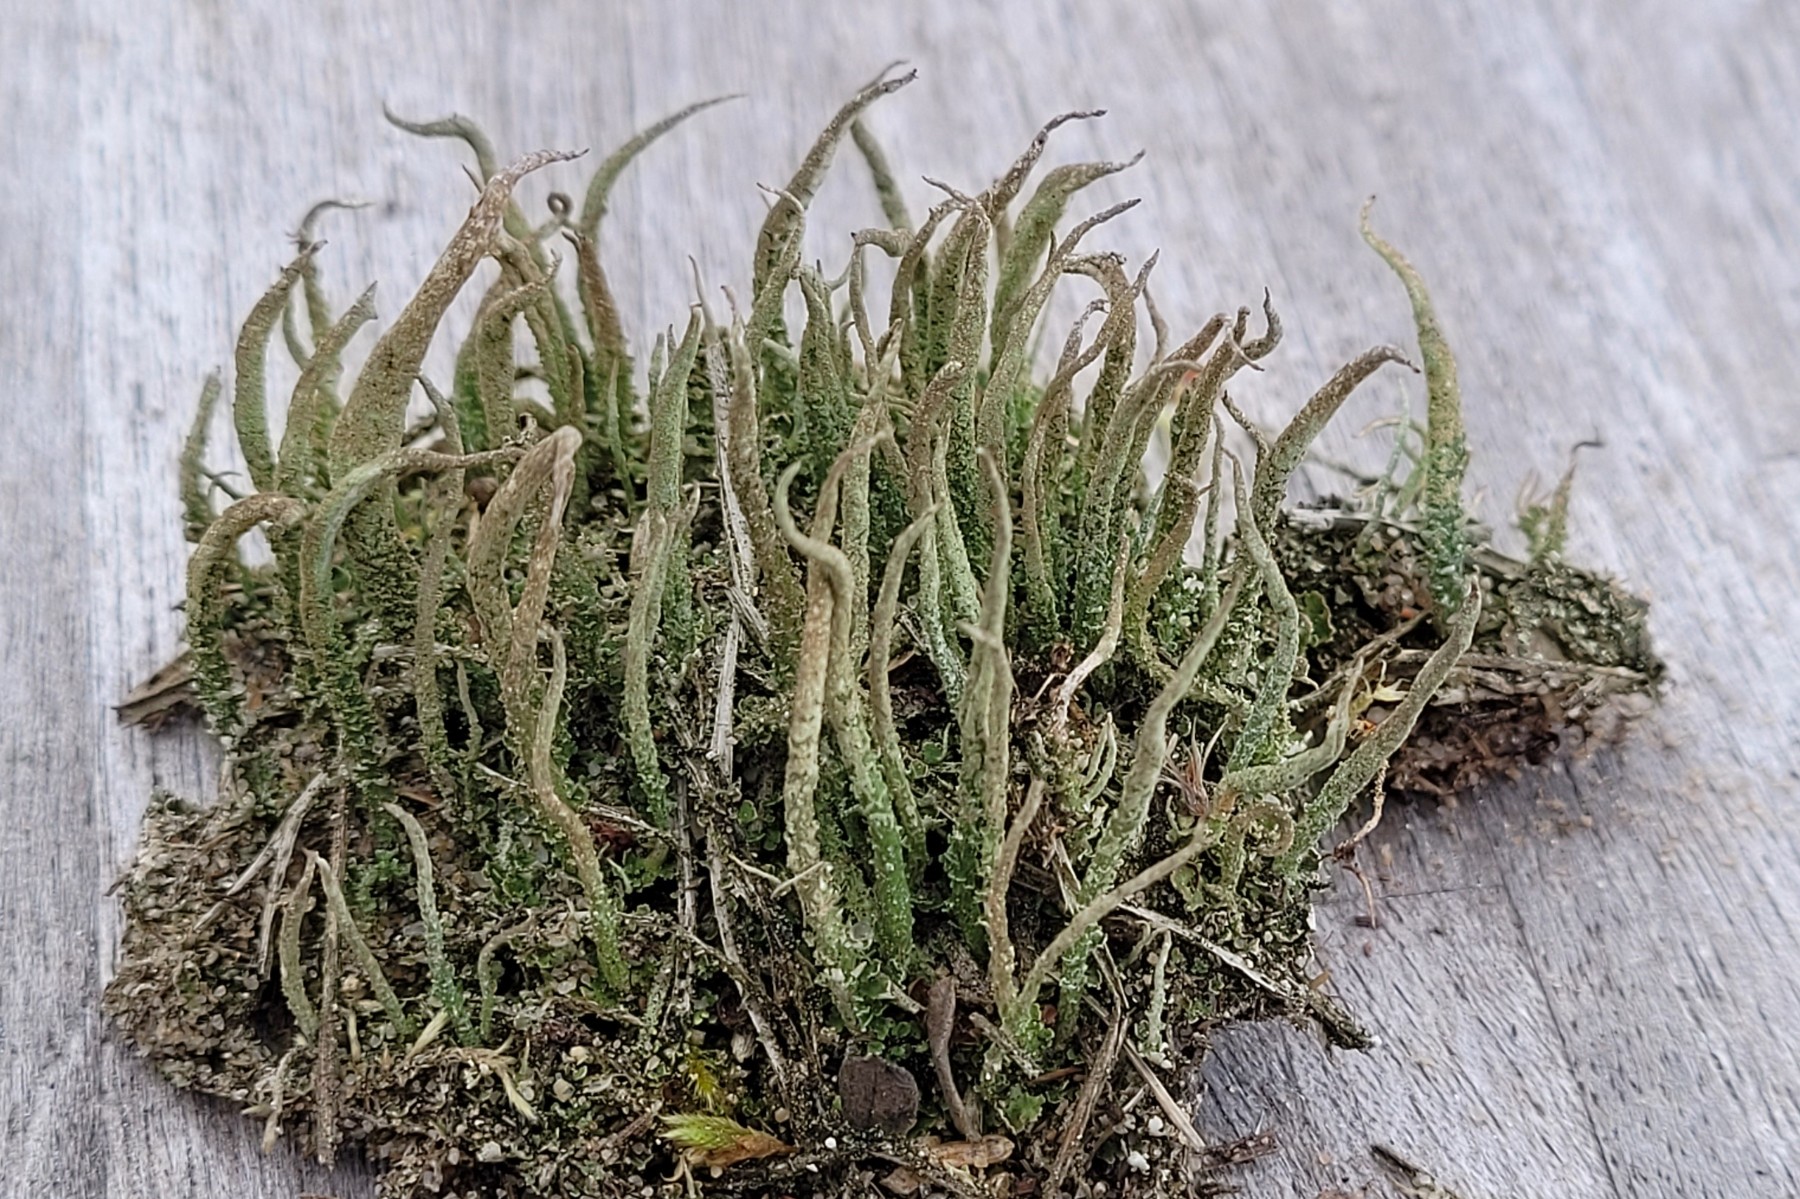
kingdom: Fungi
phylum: Ascomycota
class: Lecanoromycetes
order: Lecanorales
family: Cladoniaceae
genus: Cladonia
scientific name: Cladonia cornuta
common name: syl-bægerlav
